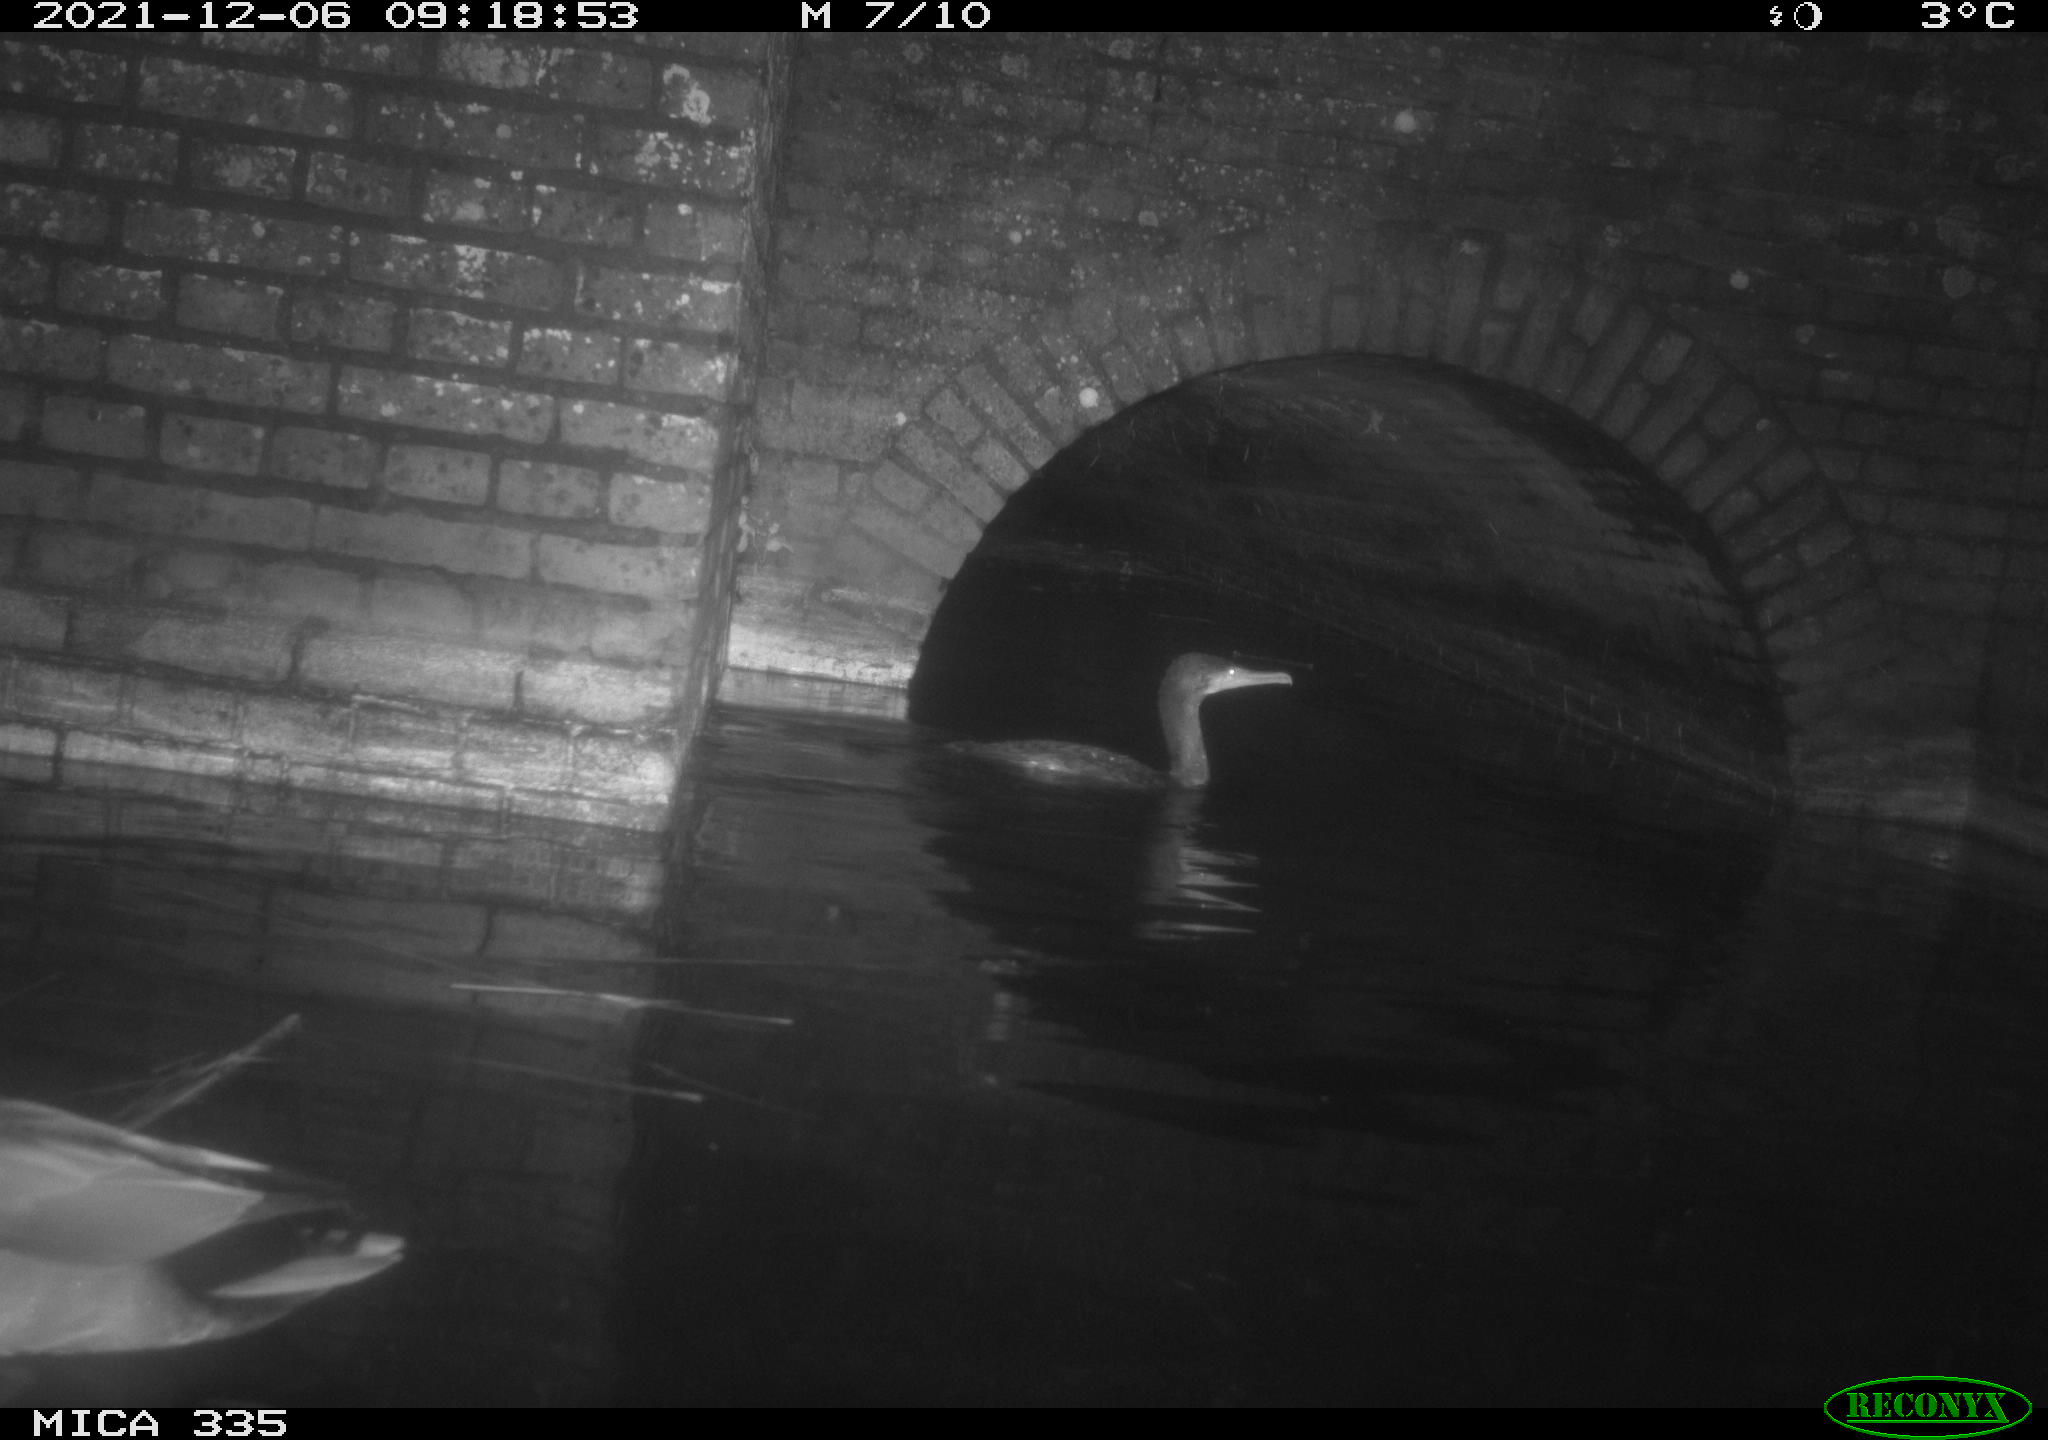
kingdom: Animalia
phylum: Chordata
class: Aves
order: Anseriformes
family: Anatidae
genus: Anas
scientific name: Anas platyrhynchos
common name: Mallard
